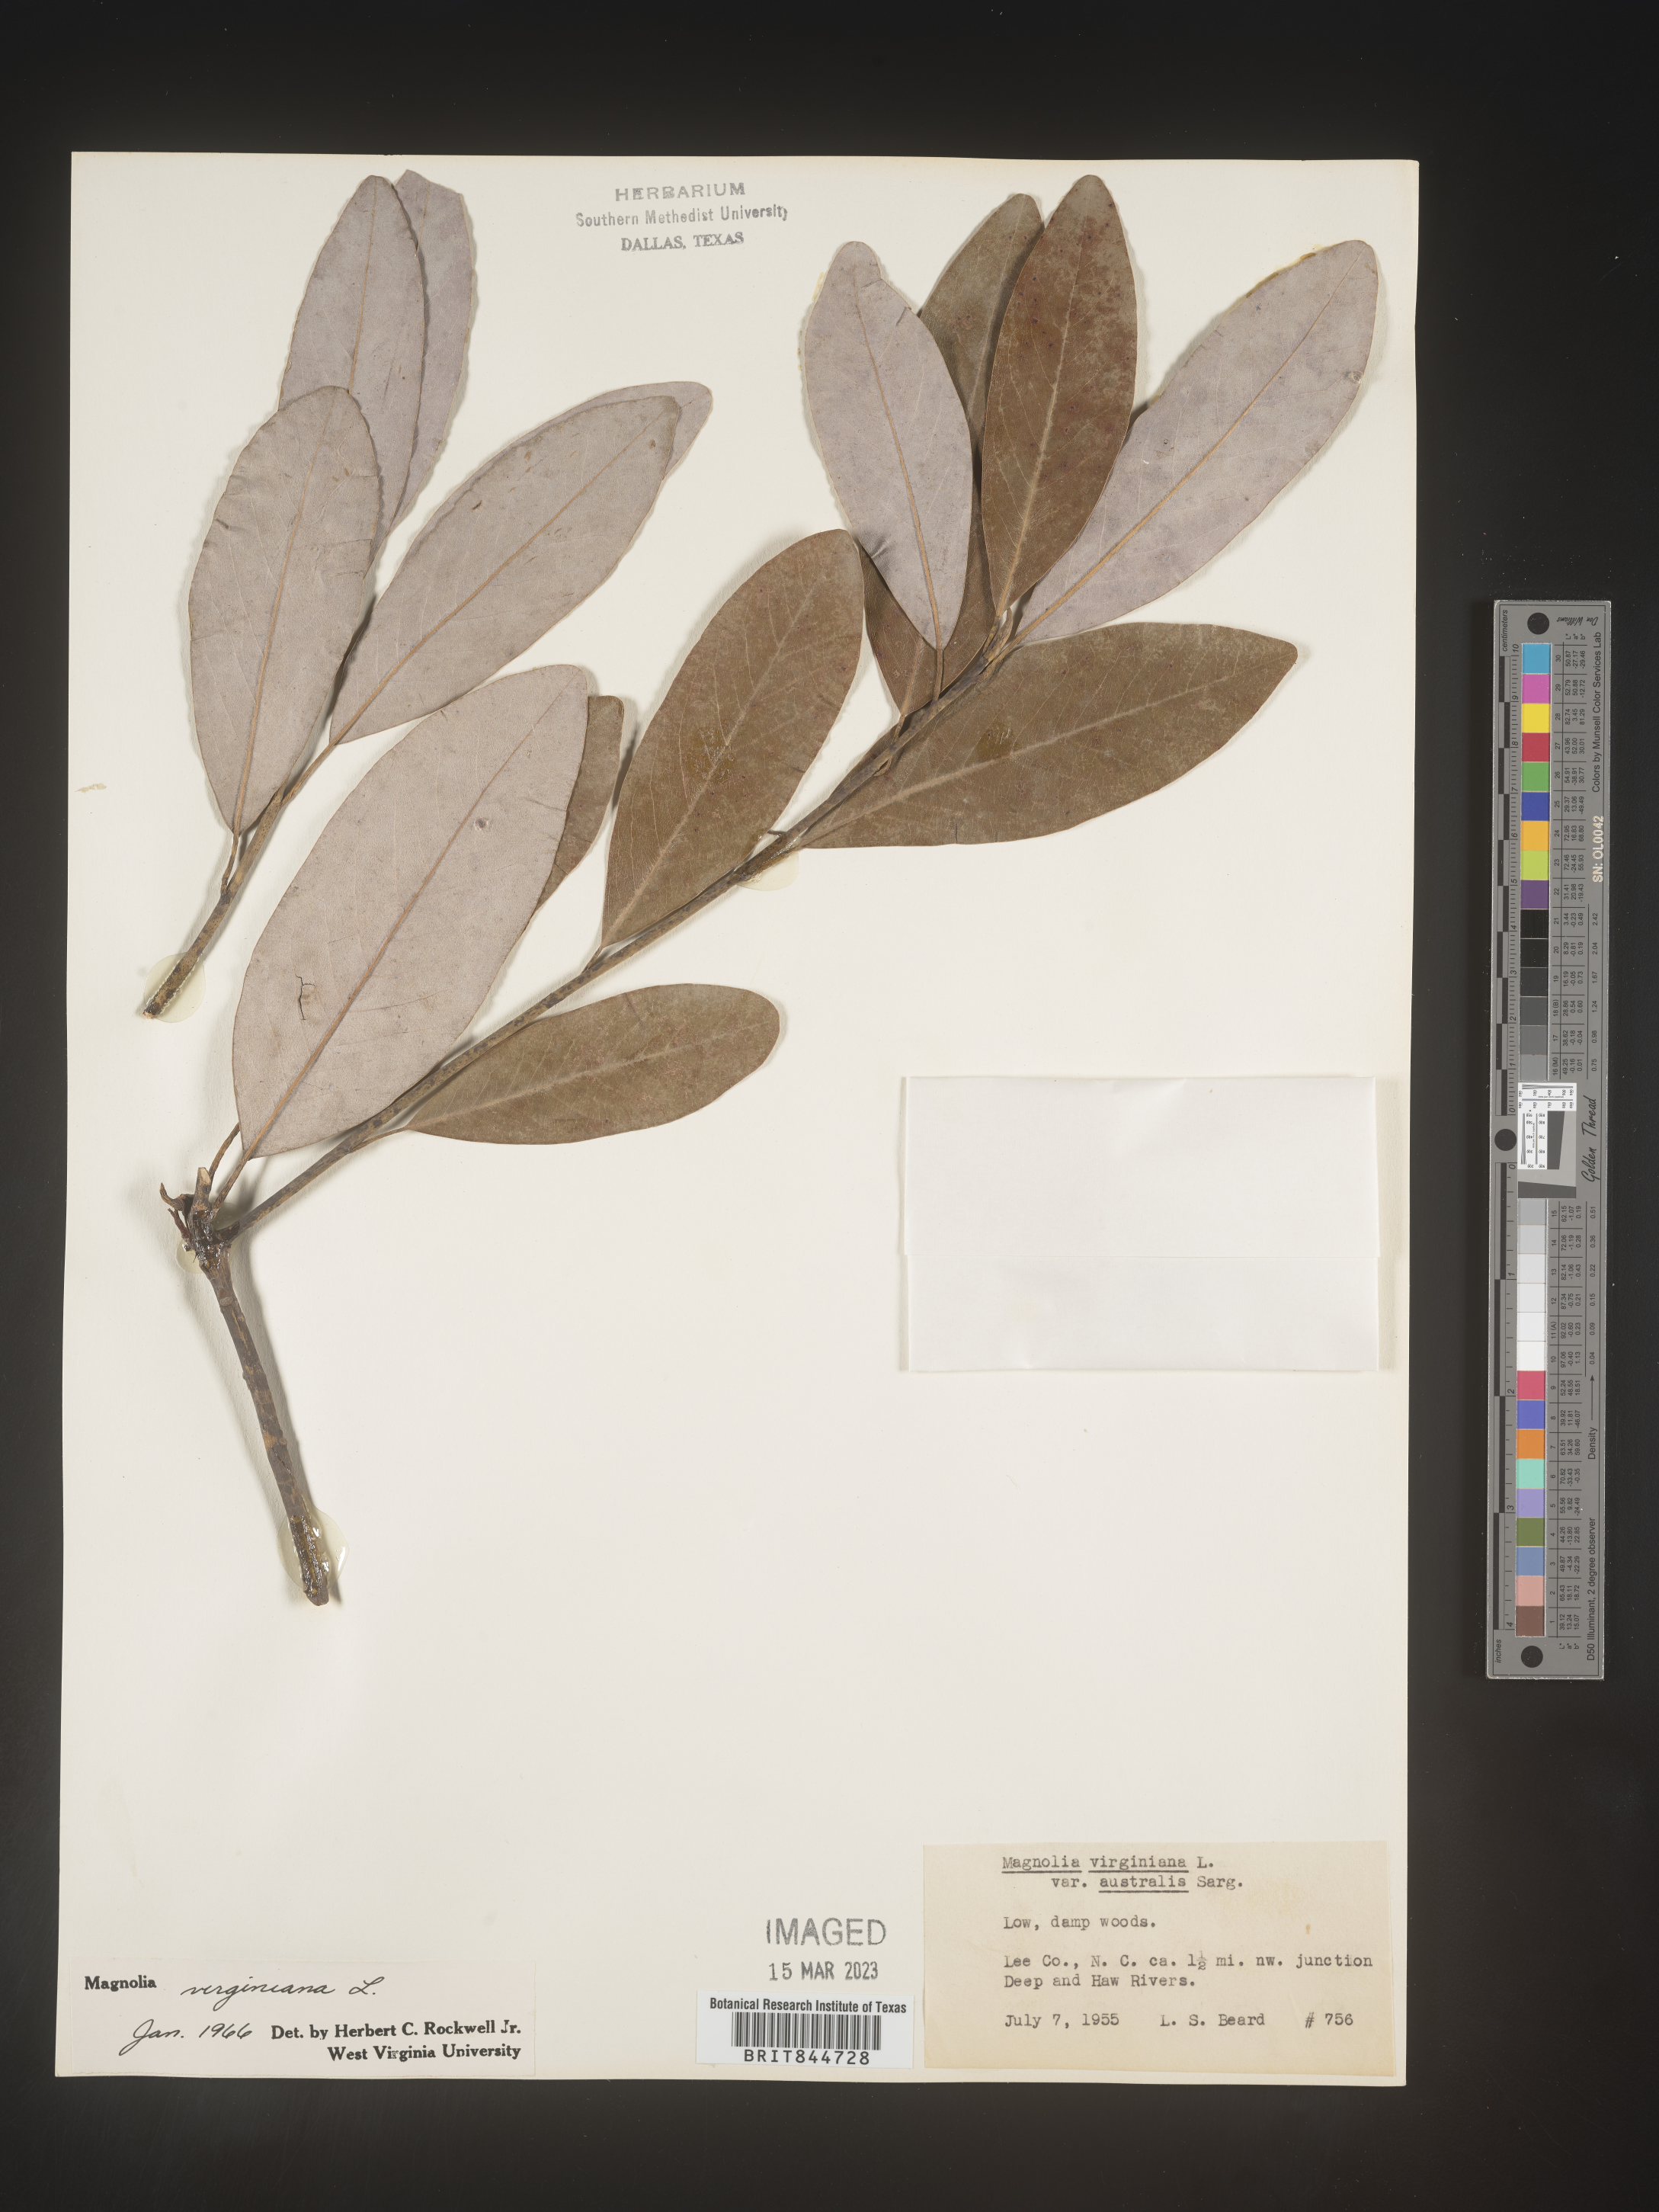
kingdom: Plantae
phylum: Tracheophyta
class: Magnoliopsida
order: Magnoliales
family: Magnoliaceae
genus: Magnolia
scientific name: Magnolia virginiana
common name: Swamp bay
